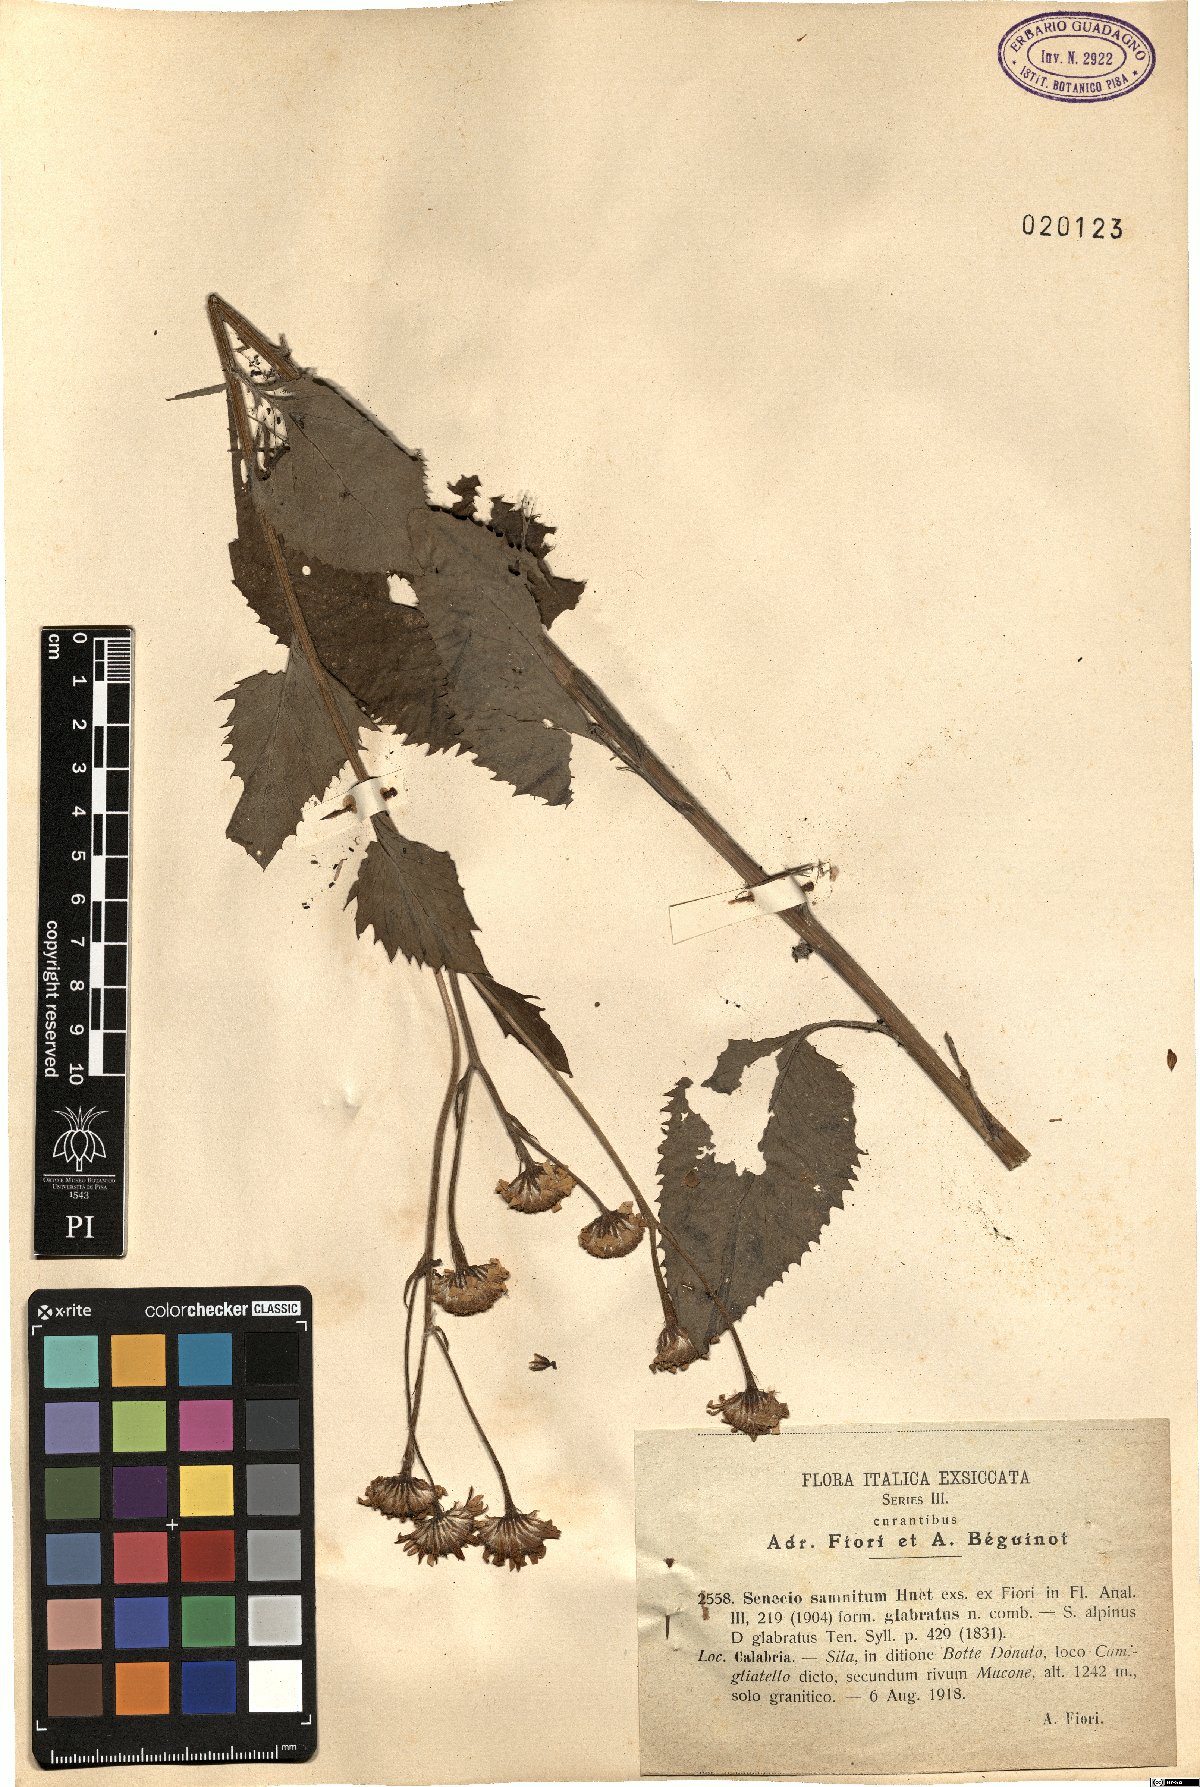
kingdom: Plantae
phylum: Tracheophyta
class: Magnoliopsida
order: Asterales
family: Asteraceae
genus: Jacobaea
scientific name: Jacobaea alpina
